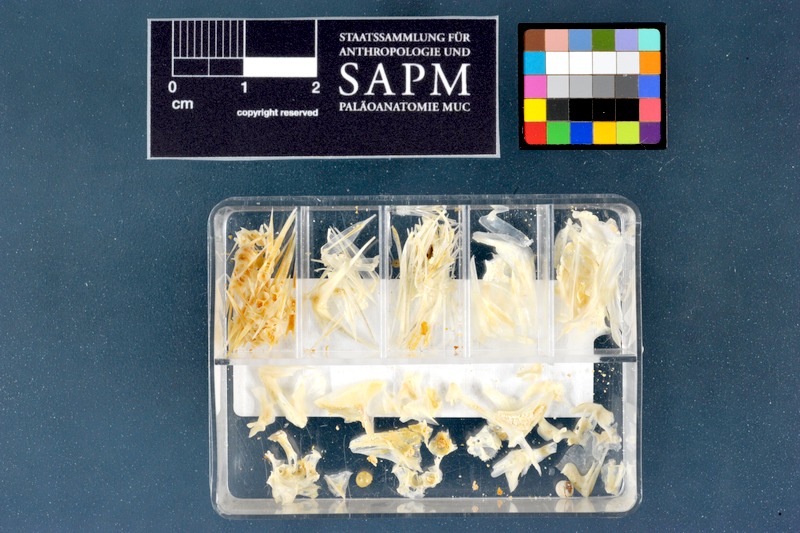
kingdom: Animalia
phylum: Chordata
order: Perciformes
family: Sparidae
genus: Diplodus
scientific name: Diplodus vulgaris
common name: Common two-banded seabream
